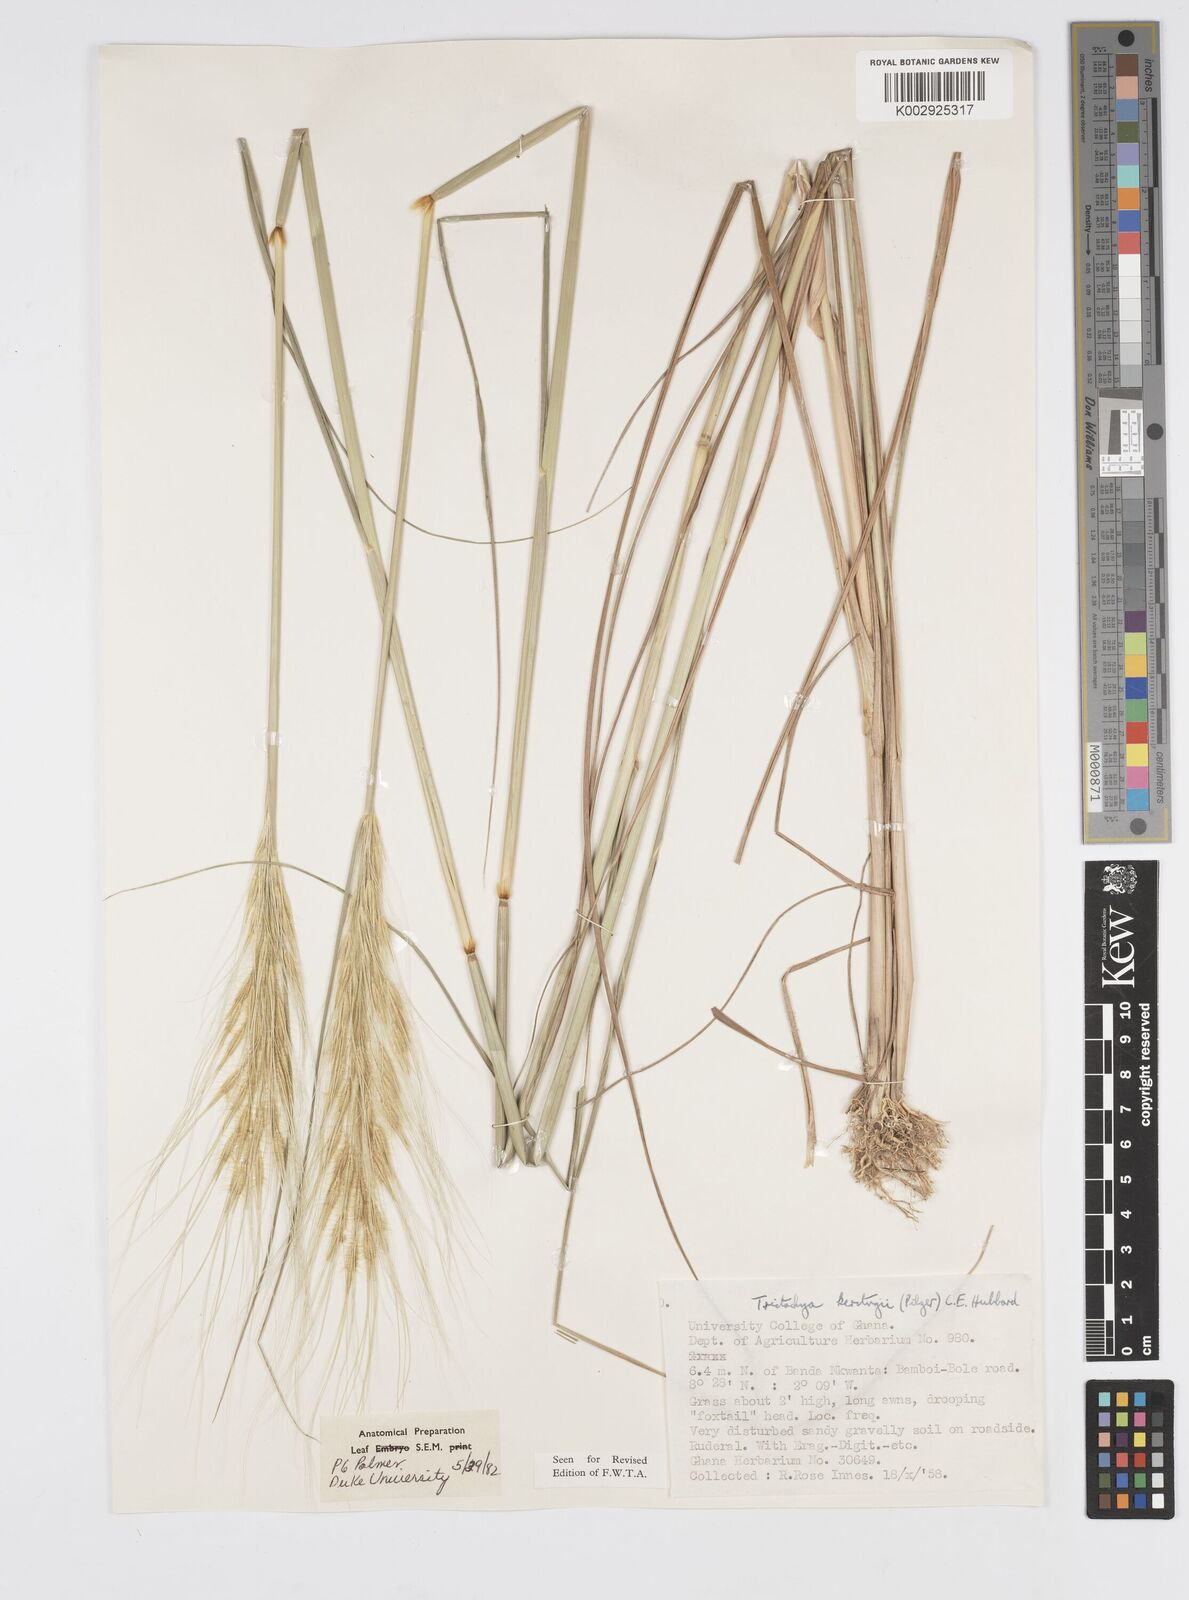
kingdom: Plantae
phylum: Tracheophyta
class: Liliopsida
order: Poales
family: Poaceae
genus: Loudetiopsis
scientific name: Loudetiopsis kerstingii
